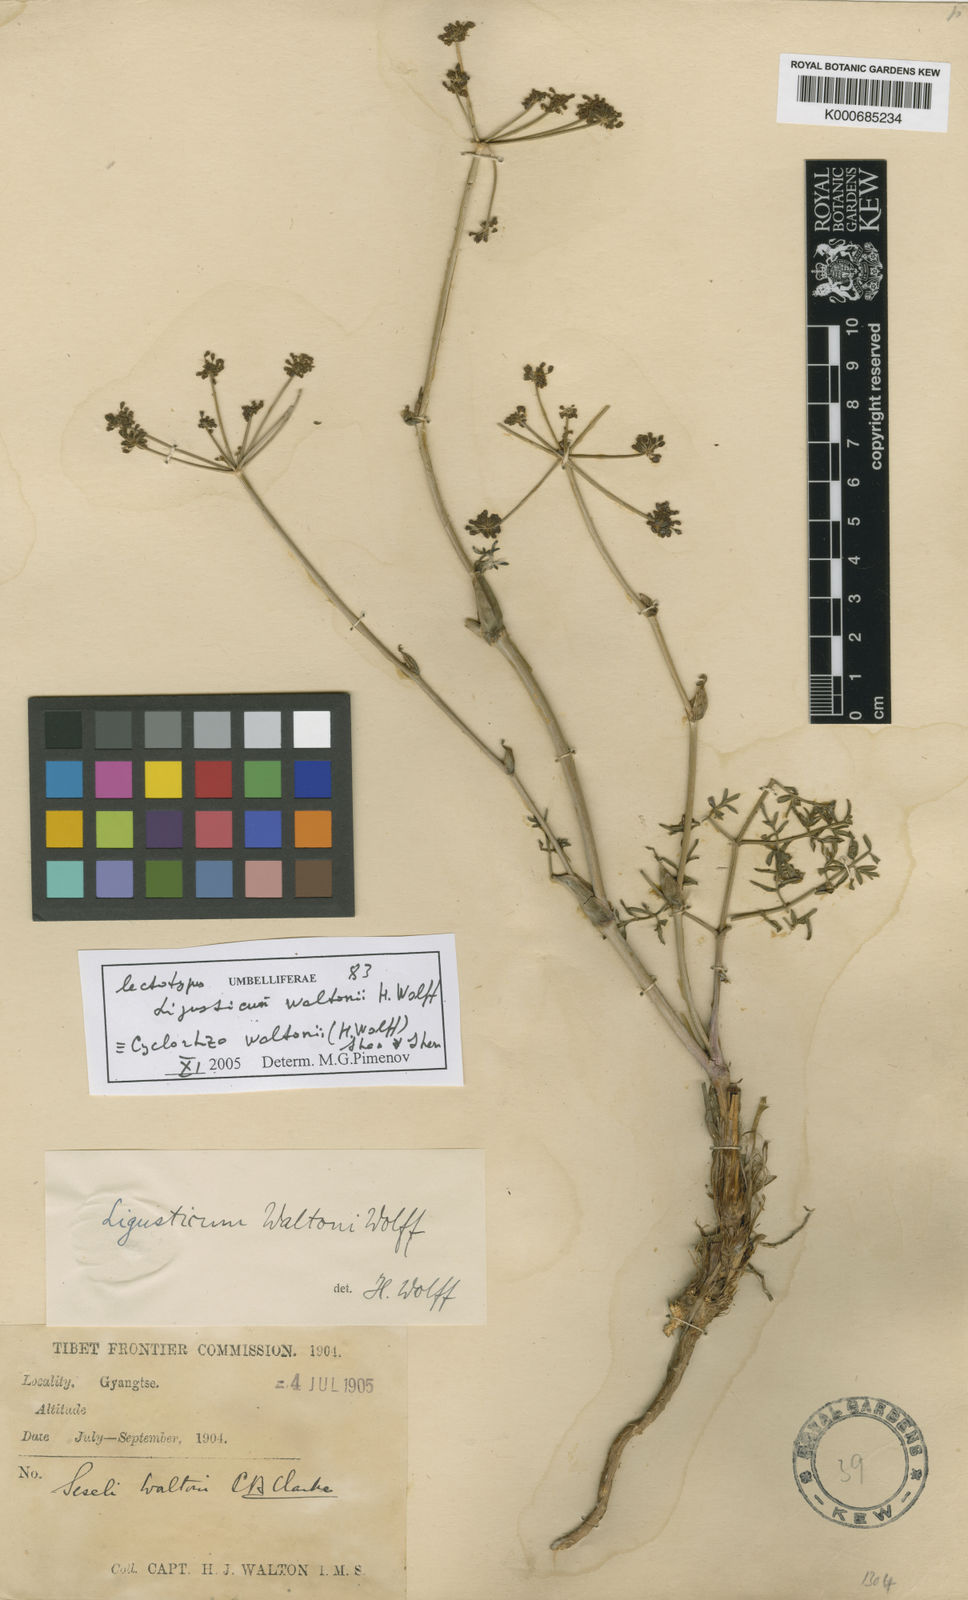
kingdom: Plantae
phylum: Tracheophyta
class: Magnoliopsida
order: Apiales
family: Apiaceae
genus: Cyclorhiza
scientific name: Cyclorhiza waltonii
